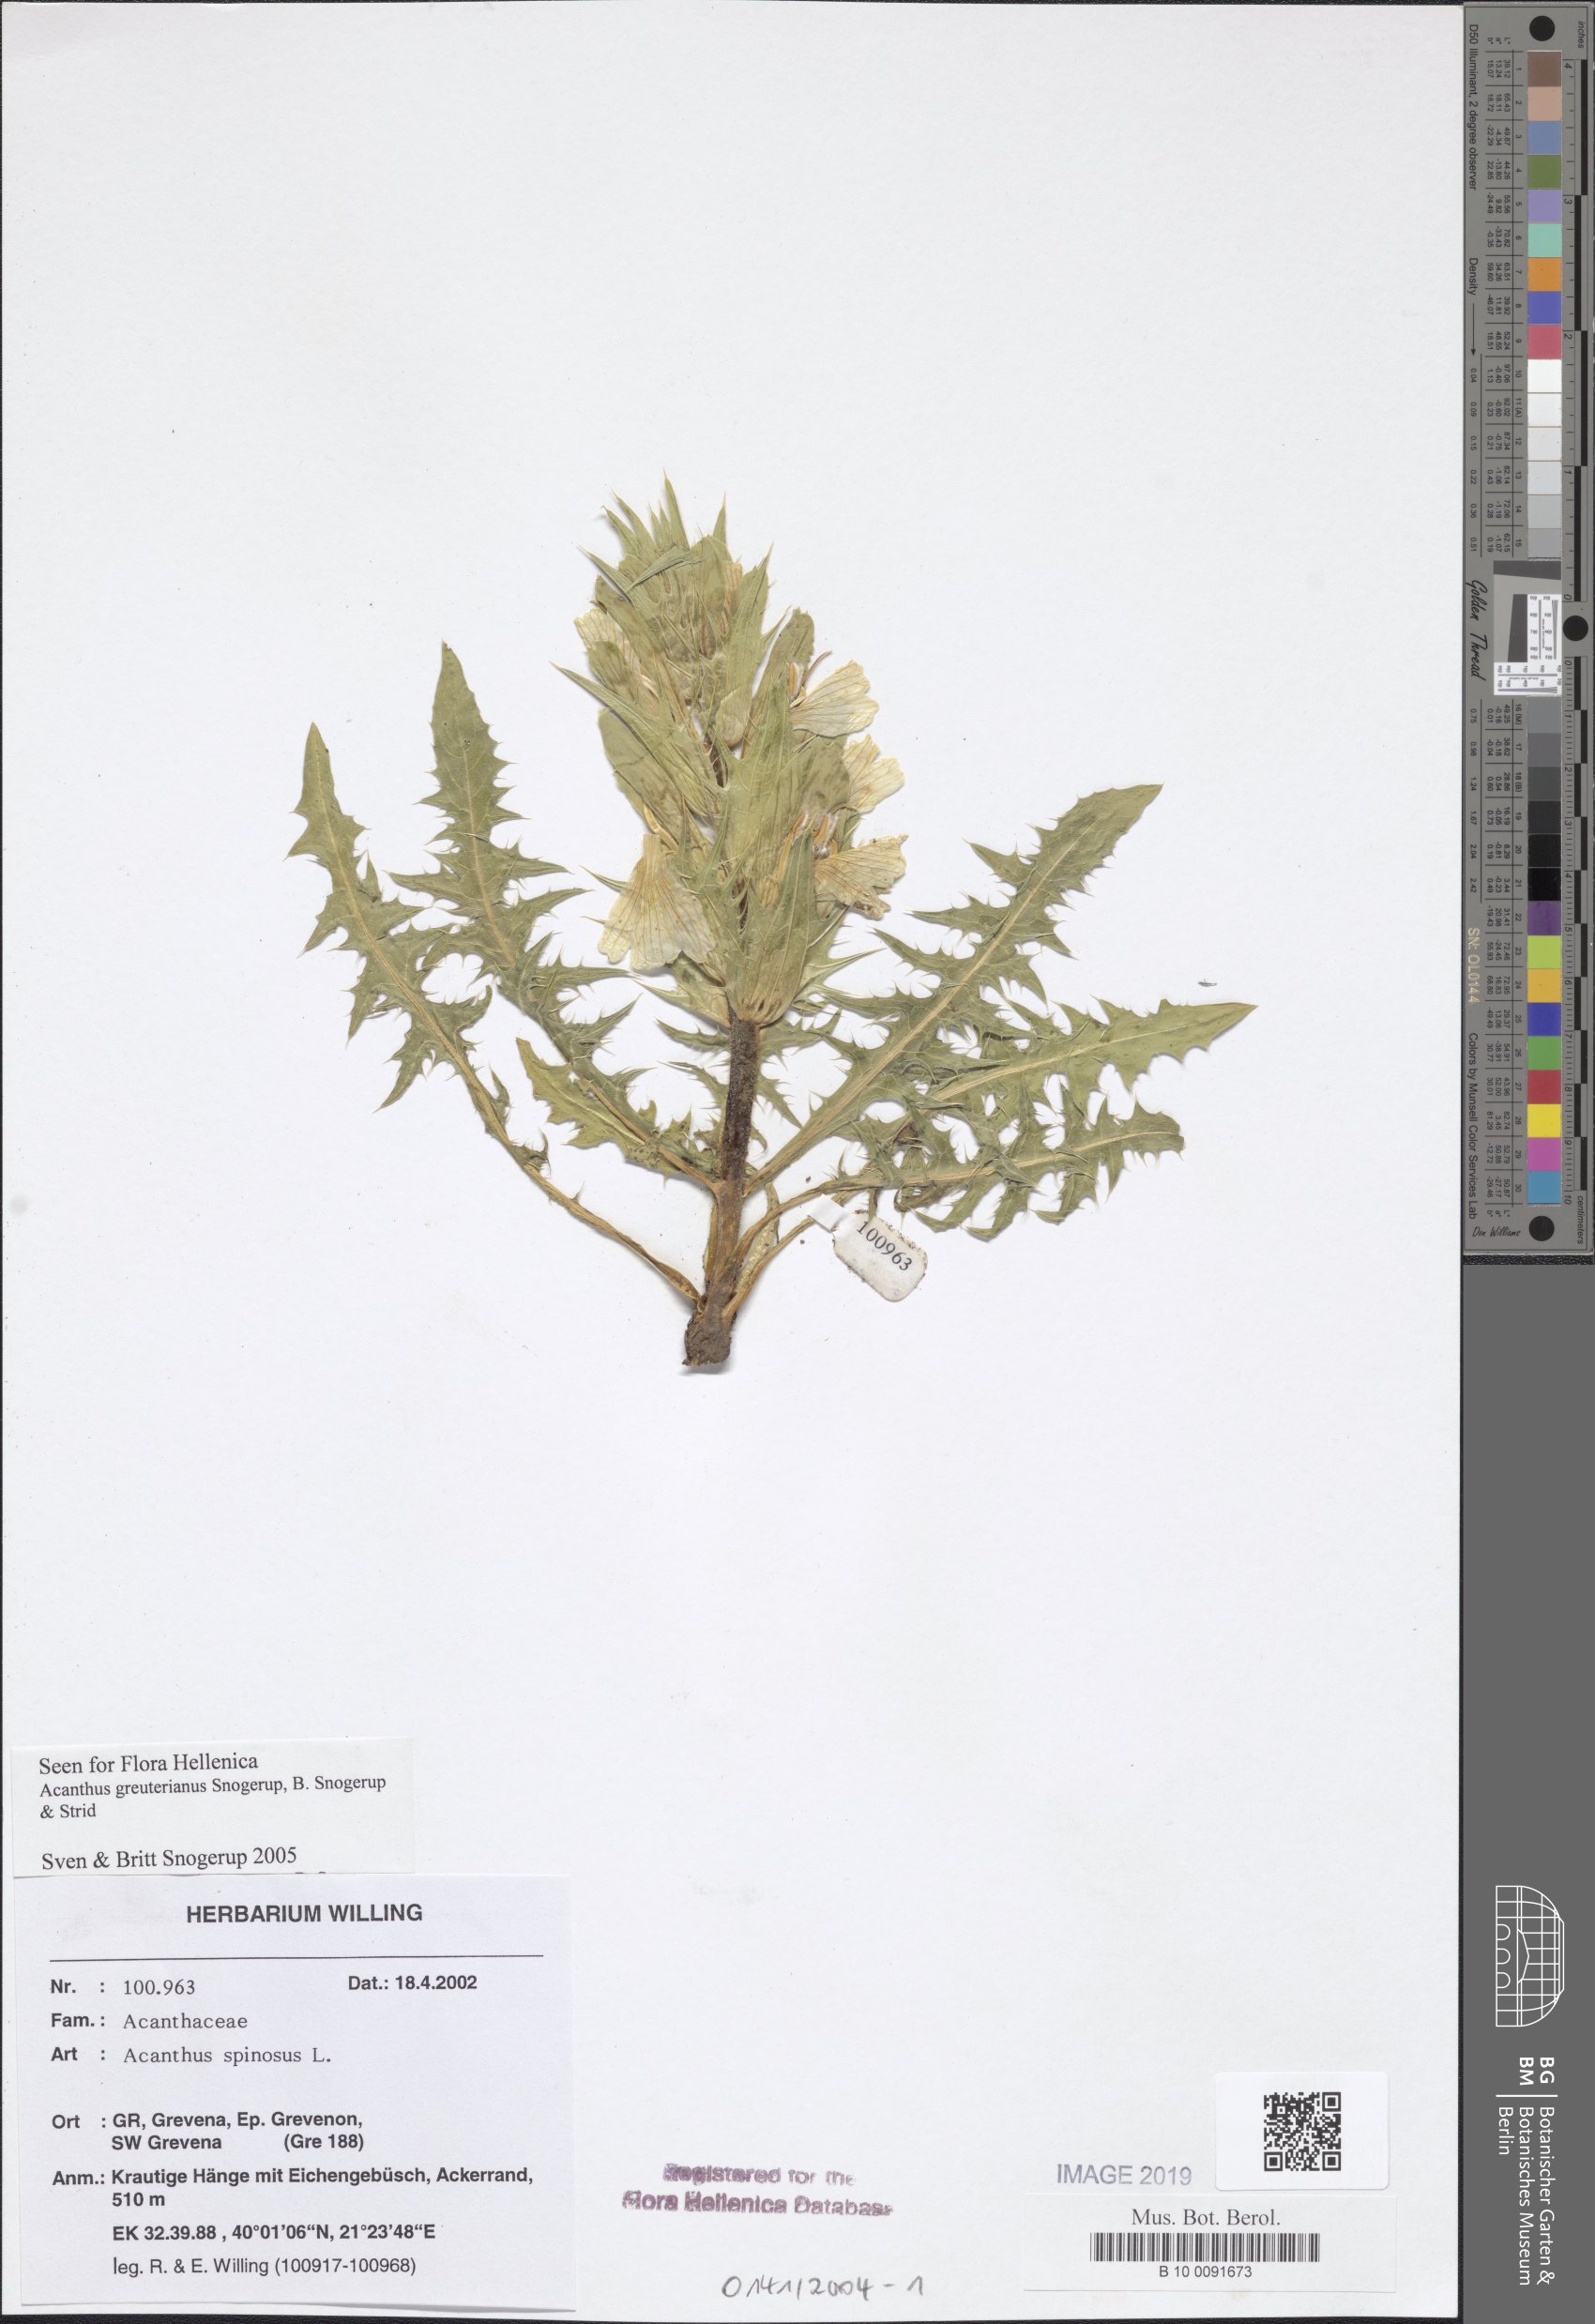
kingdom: Plantae
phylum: Tracheophyta
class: Magnoliopsida
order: Lamiales
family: Acanthaceae
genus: Acanthus
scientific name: Acanthus greuterianus
